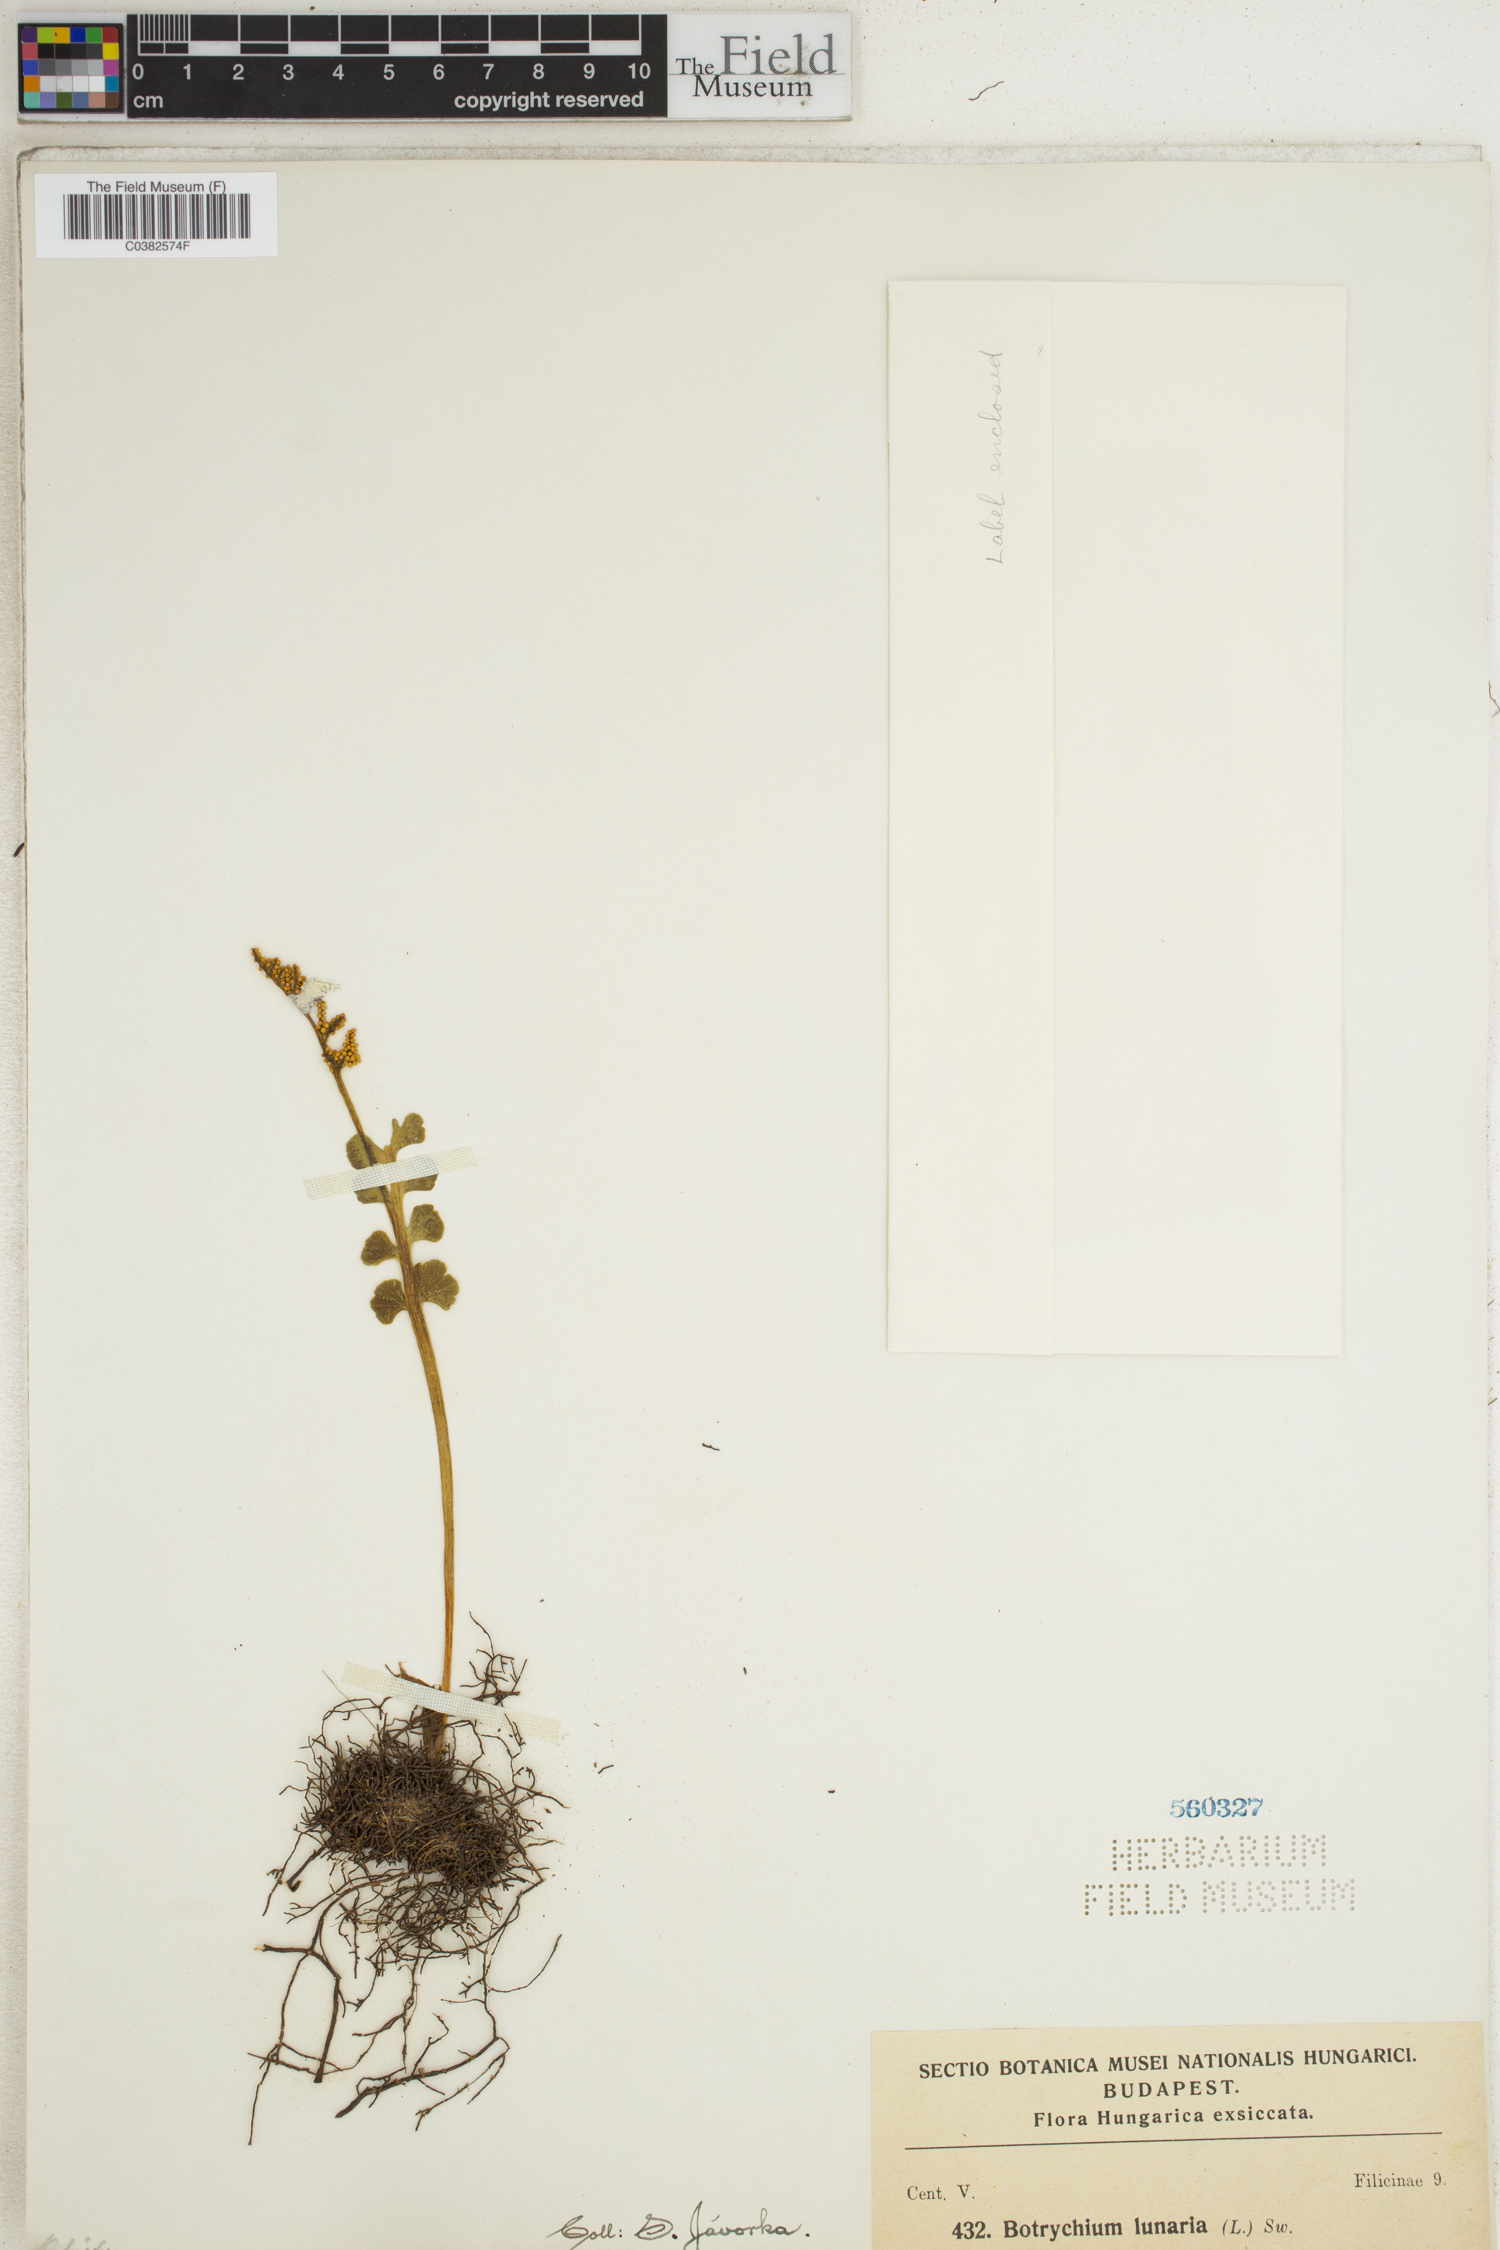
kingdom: Plantae
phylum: Tracheophyta
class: Polypodiopsida
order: Ophioglossales
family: Ophioglossaceae
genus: Botrychium
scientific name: Botrychium lunaria
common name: Moonwort
